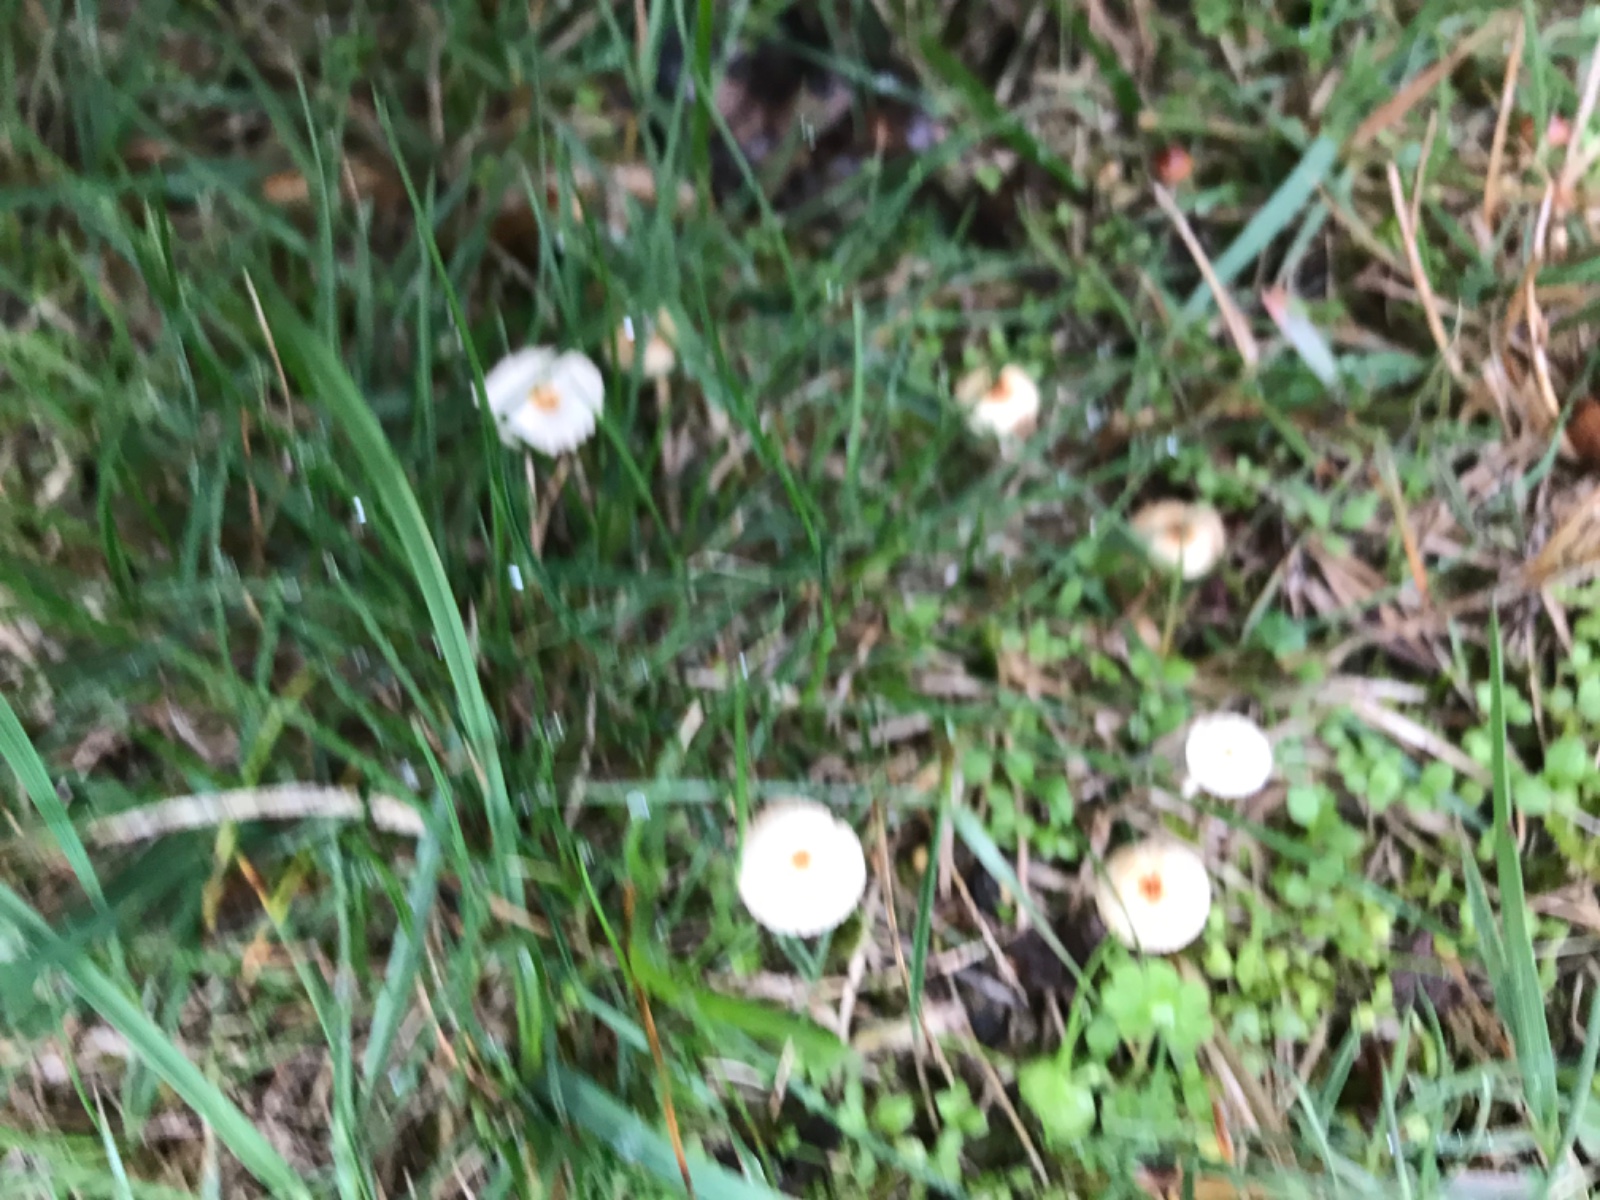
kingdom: Fungi
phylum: Basidiomycota
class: Agaricomycetes
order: Agaricales
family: Marasmiaceae
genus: Crinipellis
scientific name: Crinipellis scabella
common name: børstefod
